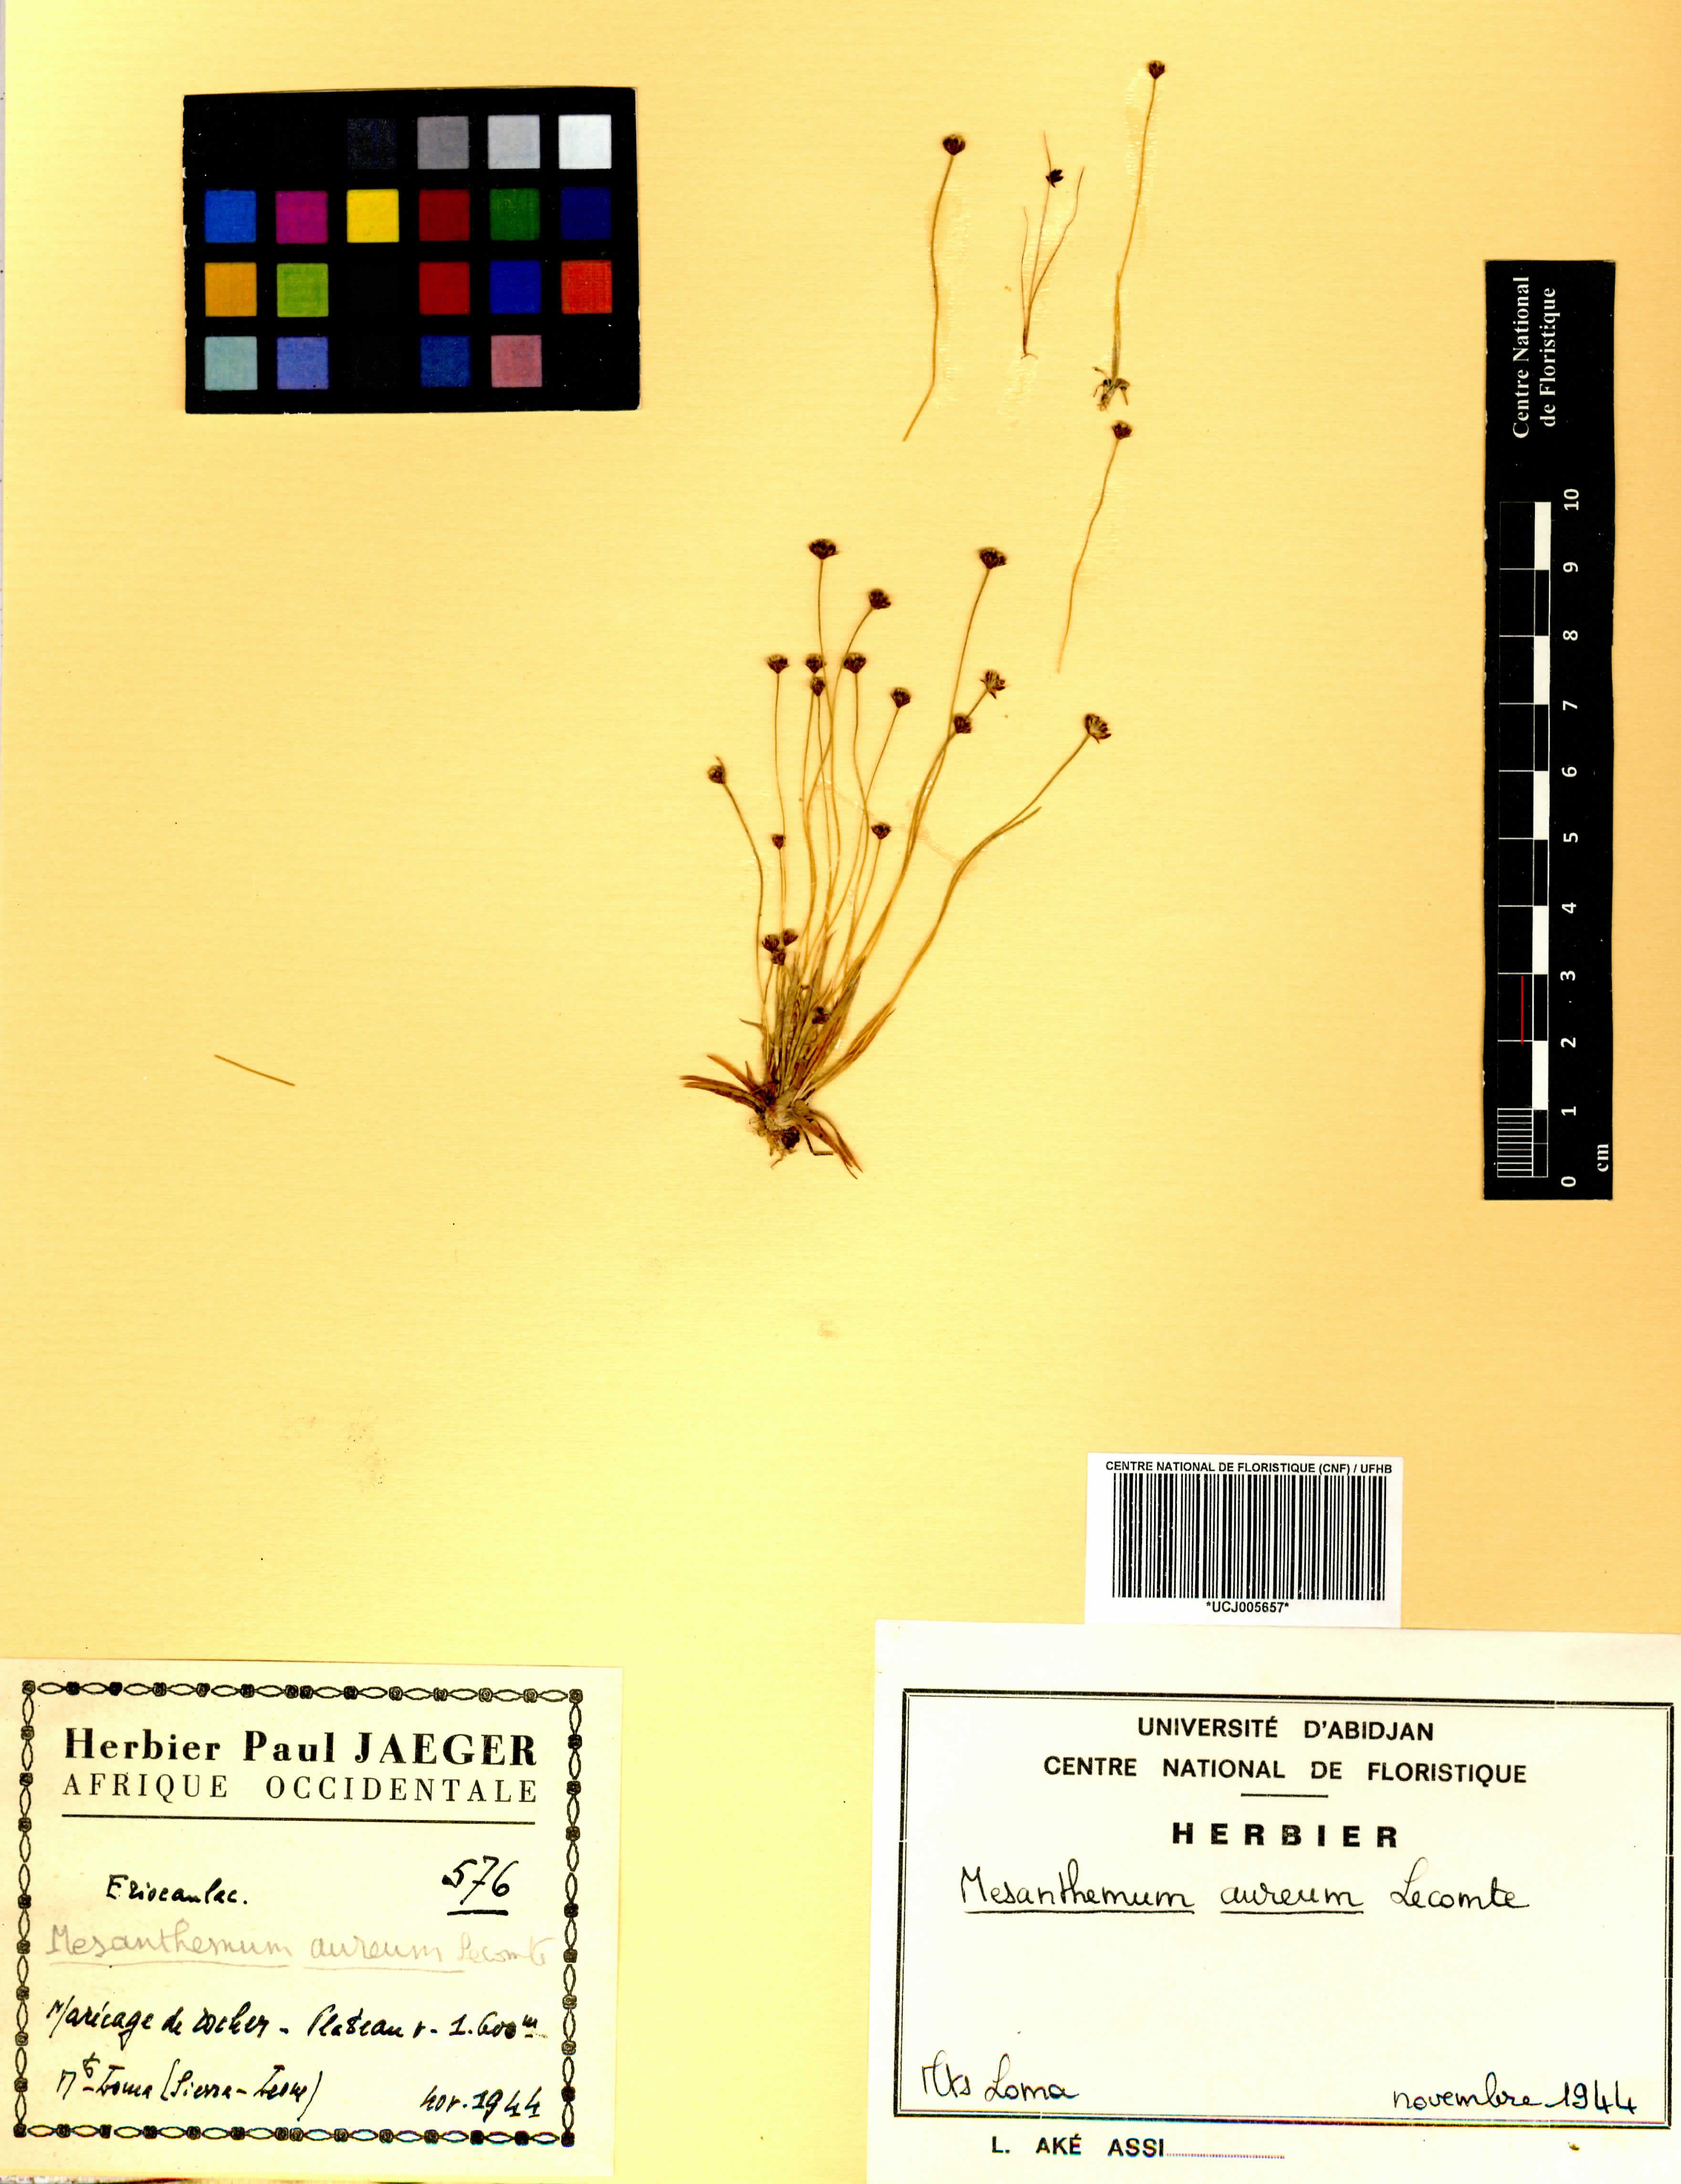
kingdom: Plantae
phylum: Tracheophyta
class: Liliopsida
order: Poales
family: Eriocaulaceae
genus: Mesanthemum
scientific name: Mesanthemum auratum
